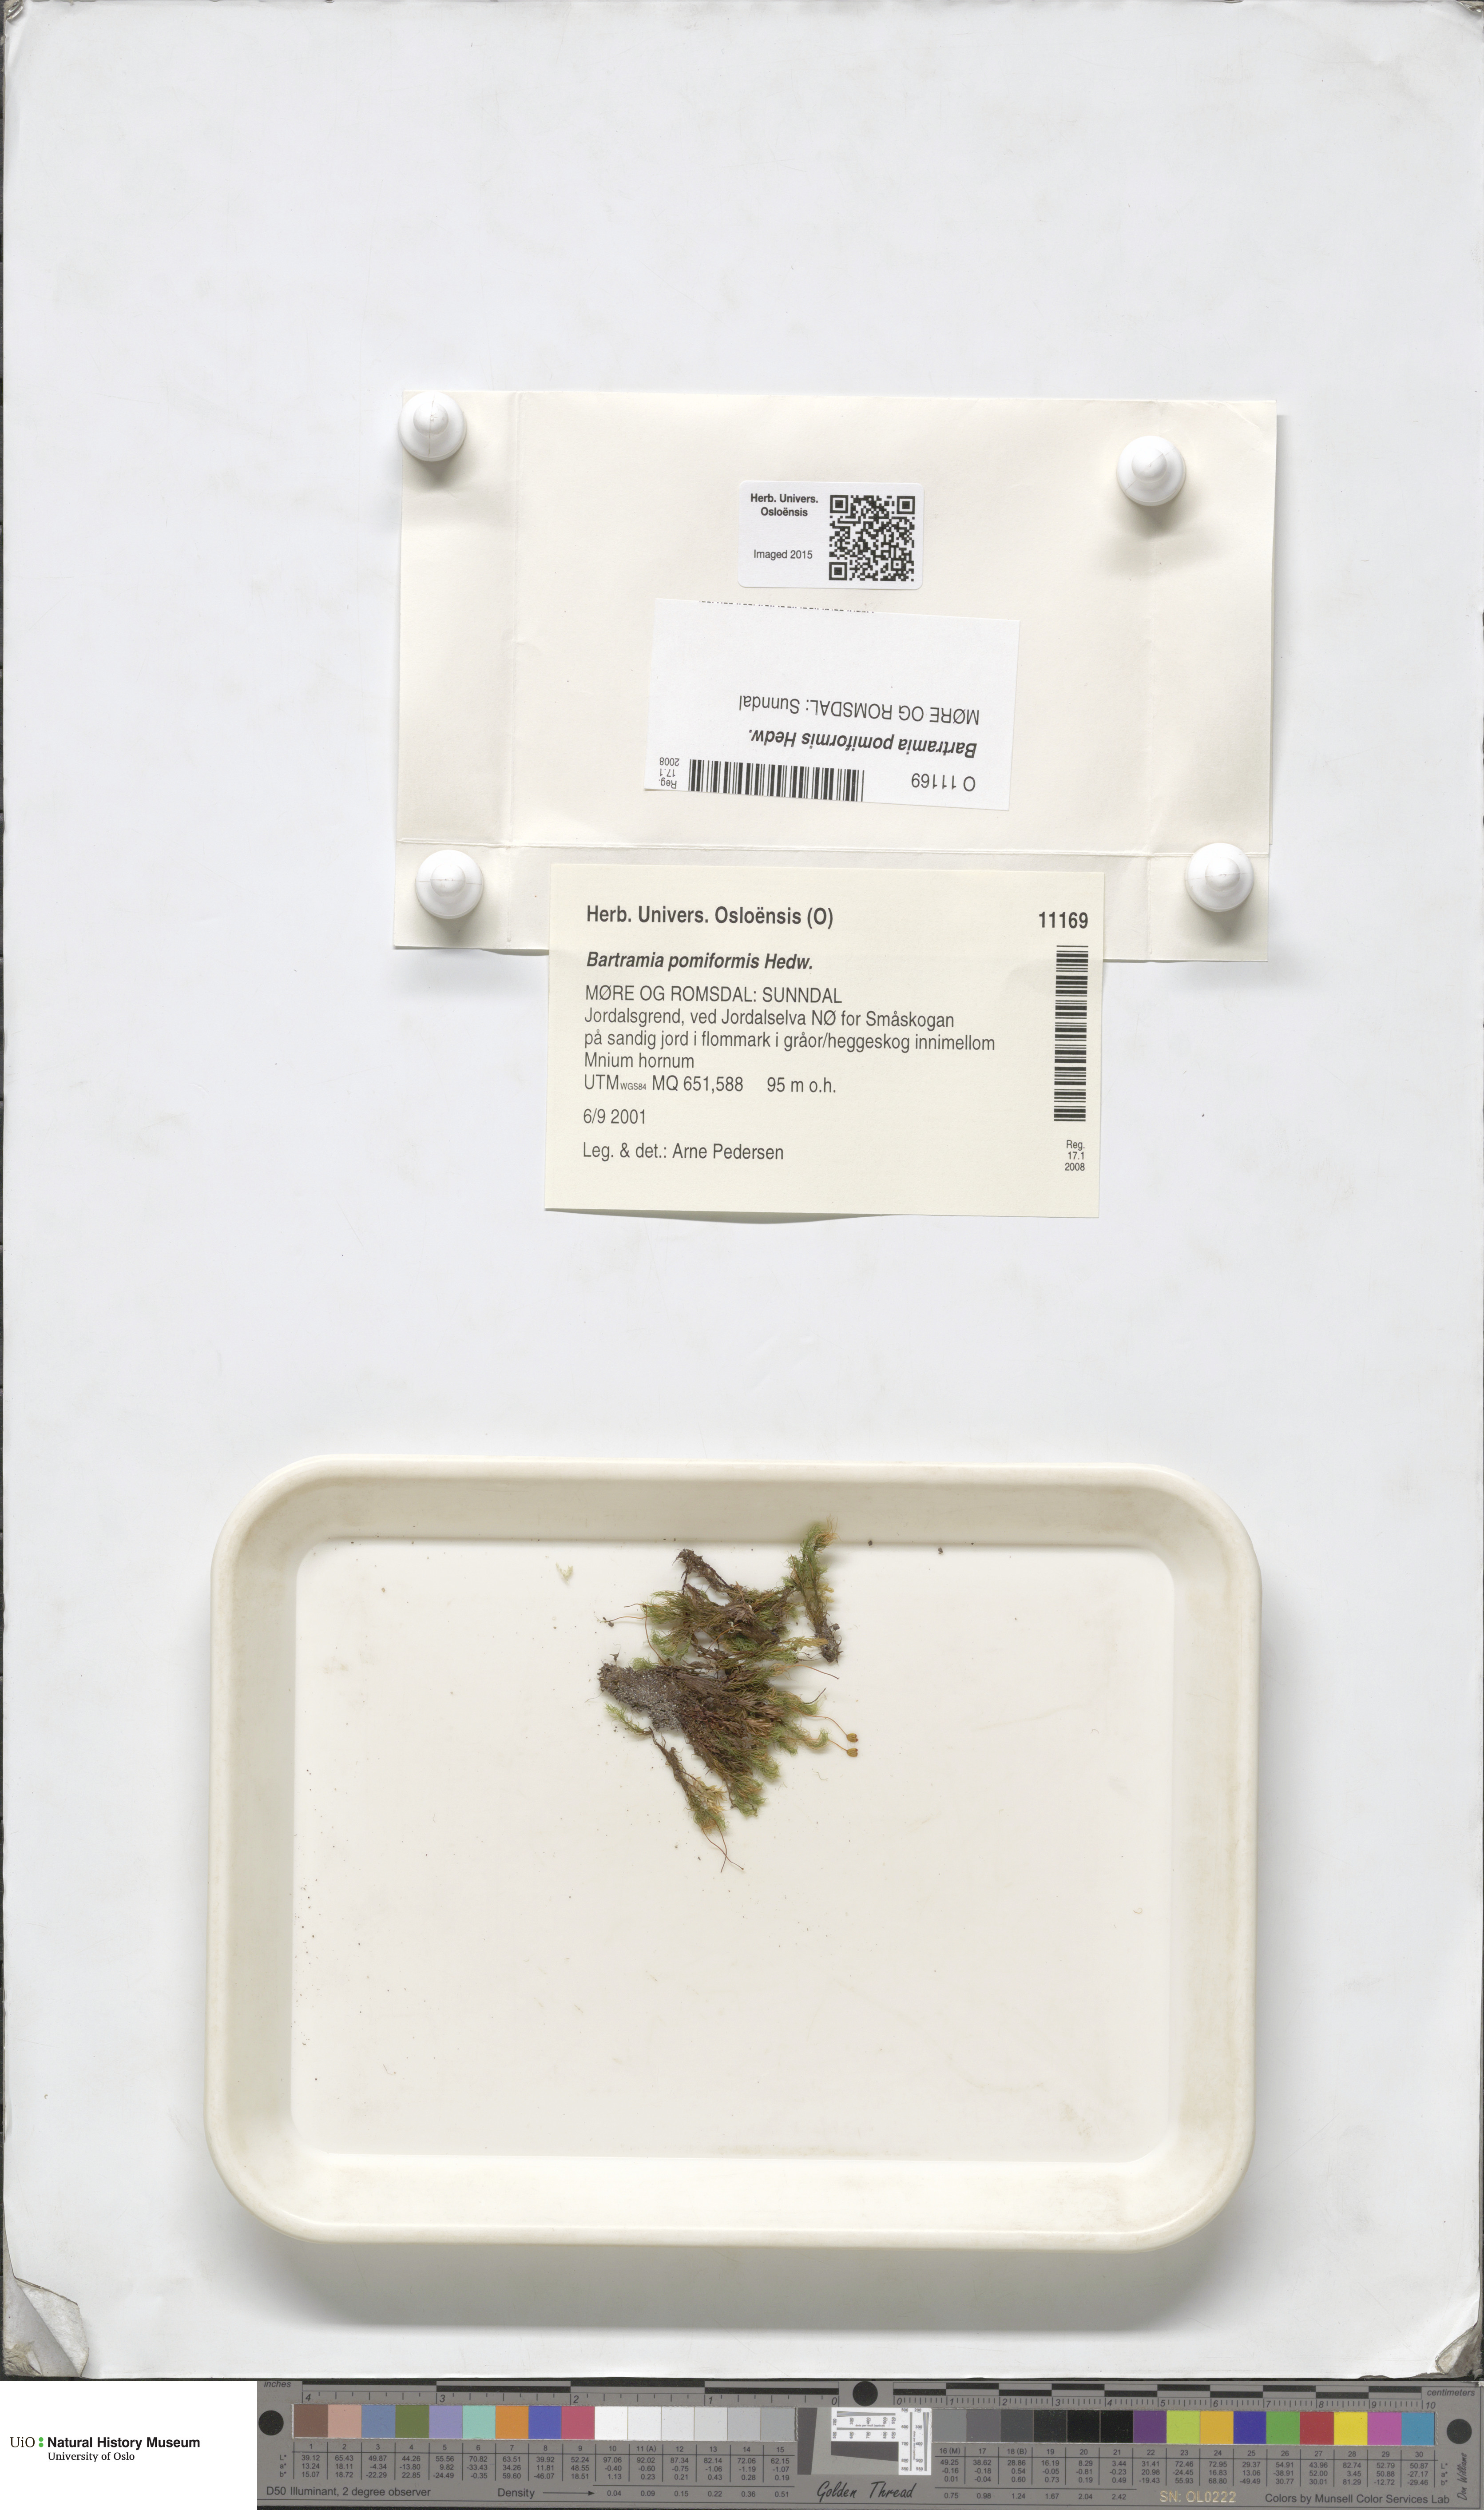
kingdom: Plantae
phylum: Bryophyta
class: Bryopsida
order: Bartramiales
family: Bartramiaceae
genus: Bartramia
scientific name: Bartramia pomiformis
